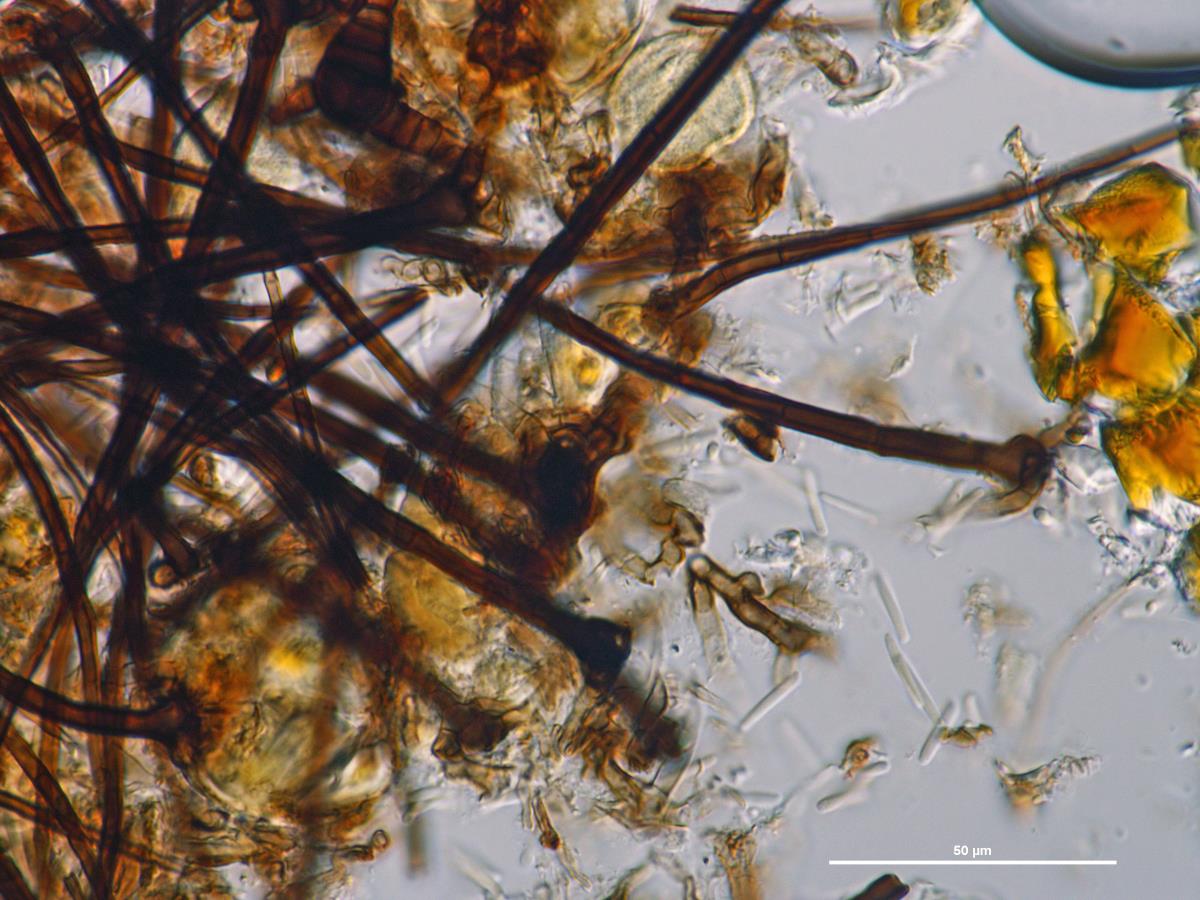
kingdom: Fungi
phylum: Ascomycota
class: Sordariomycetes
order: Chaetosphaeriales
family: Chaetosphaeriaceae
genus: Dictyochaeta
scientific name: Dictyochaeta querna
